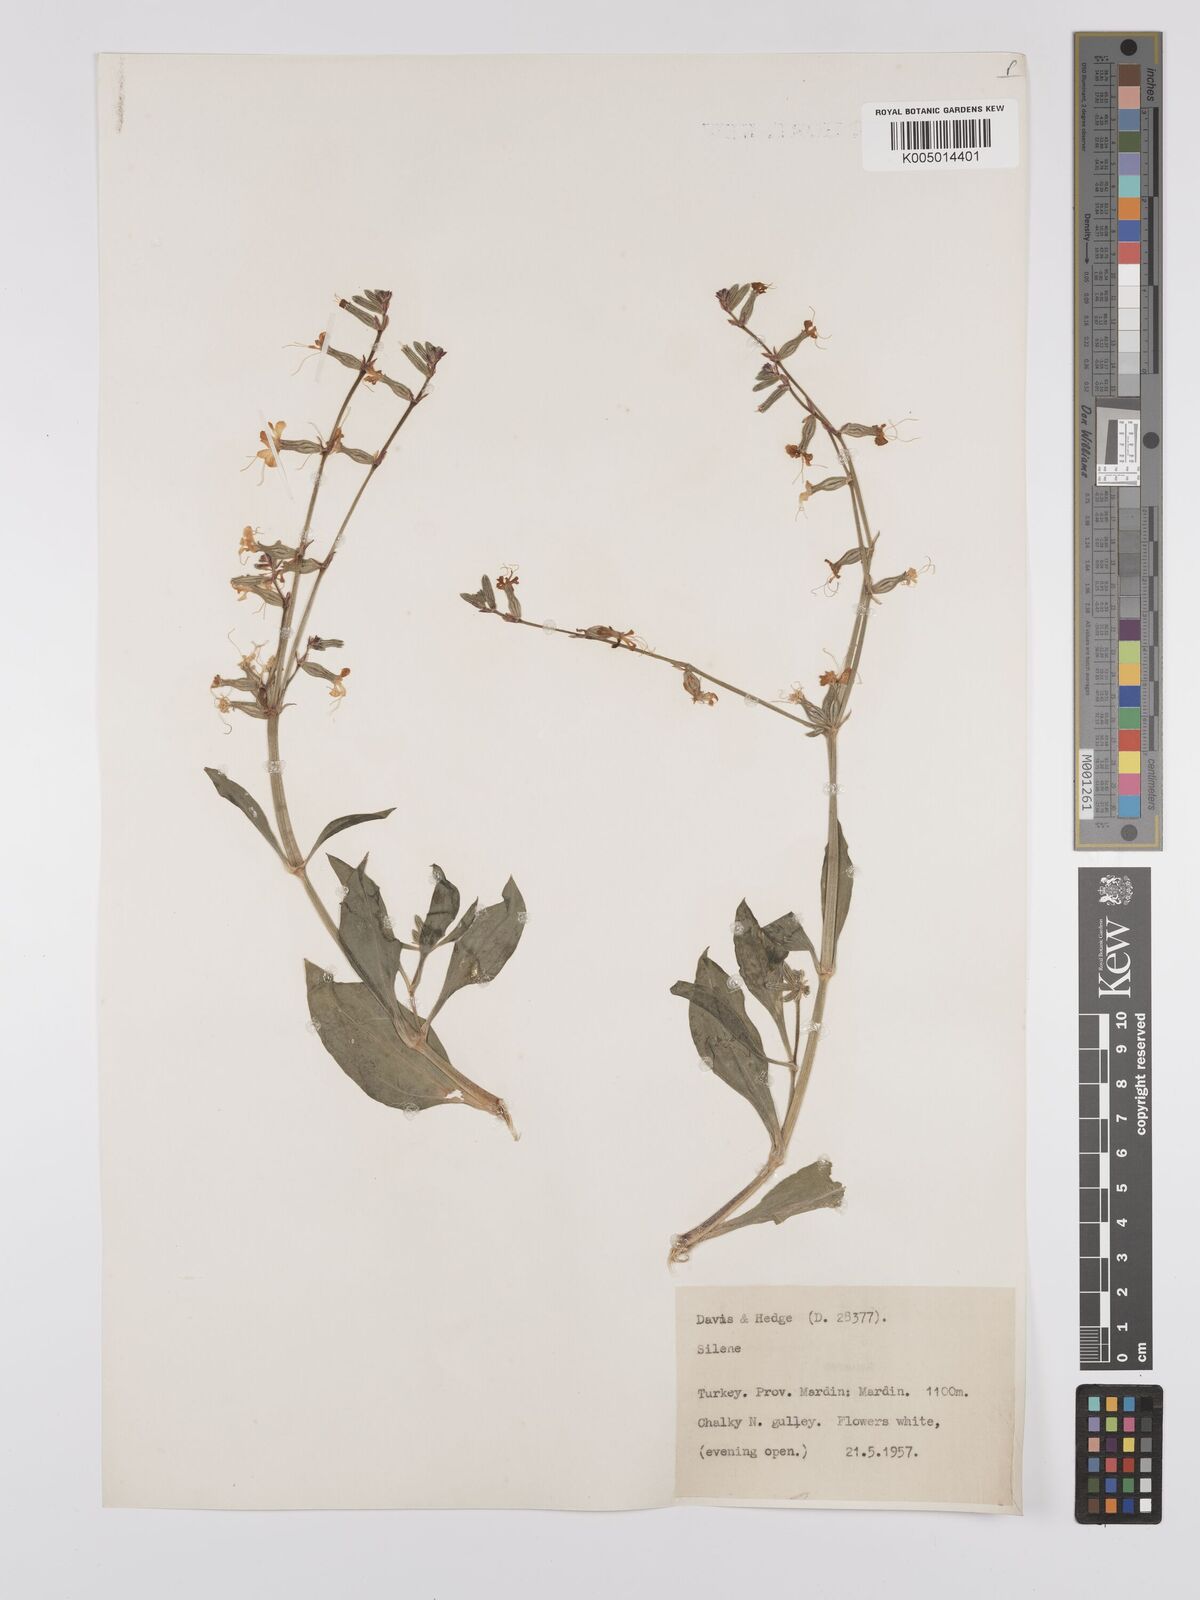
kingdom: Plantae
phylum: Tracheophyta
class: Magnoliopsida
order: Caryophyllales
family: Caryophyllaceae
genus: Silene
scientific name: Silene
